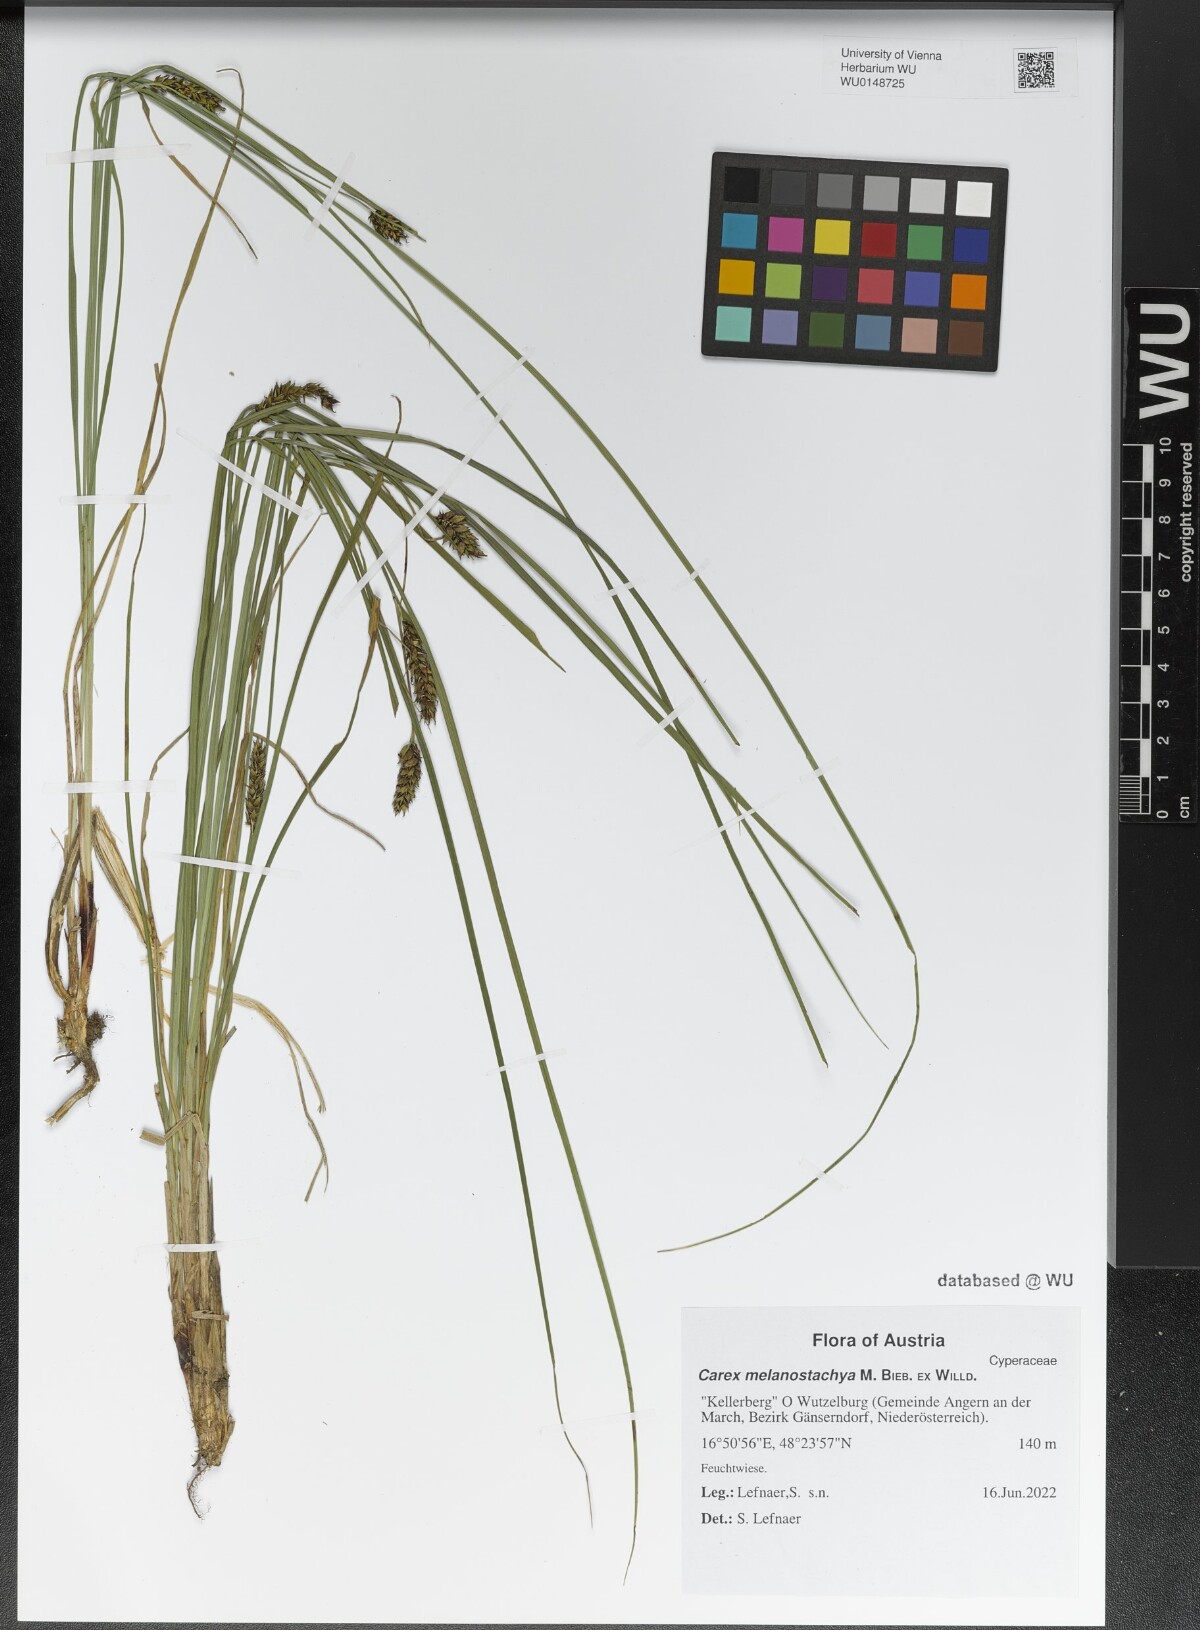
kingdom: Plantae
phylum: Tracheophyta
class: Liliopsida
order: Poales
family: Cyperaceae
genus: Carex
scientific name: Carex melanostachya
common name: Black-spiked sedge
